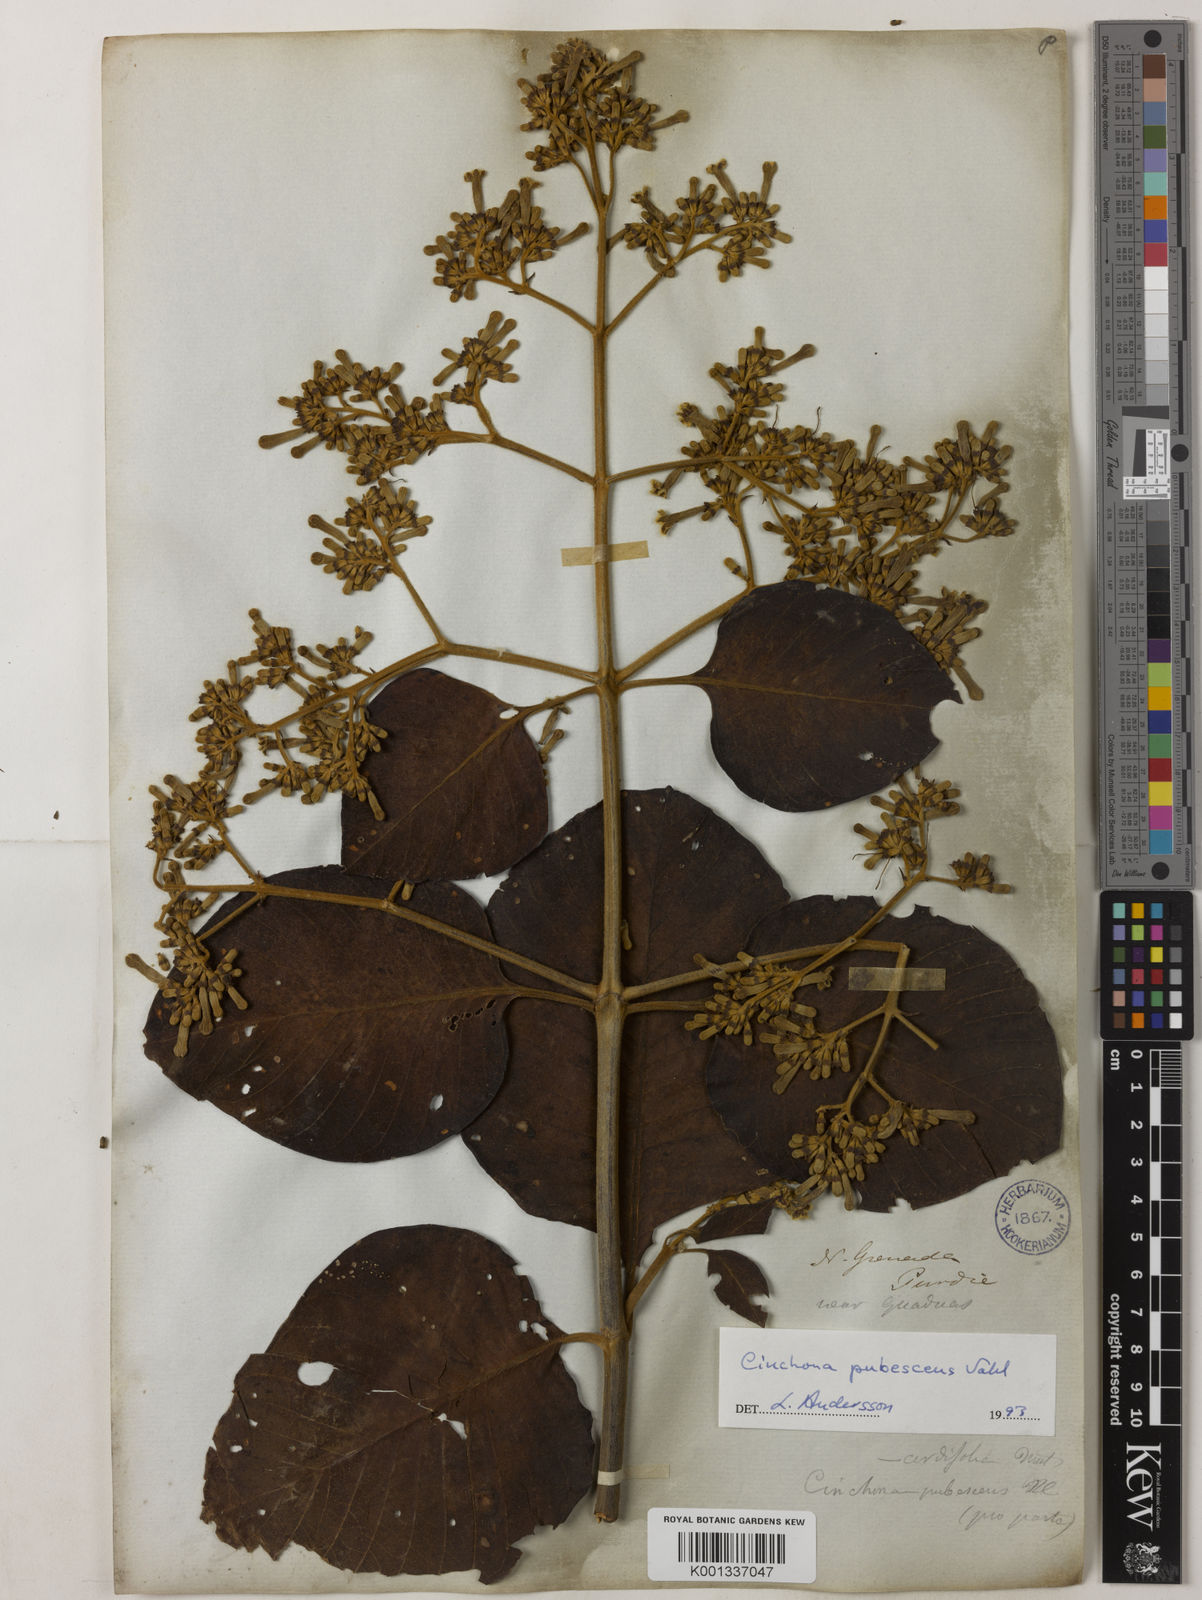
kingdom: Plantae
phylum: Tracheophyta
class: Magnoliopsida
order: Gentianales
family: Rubiaceae
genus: Cinchona
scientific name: Cinchona pubescens
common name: Quinine
